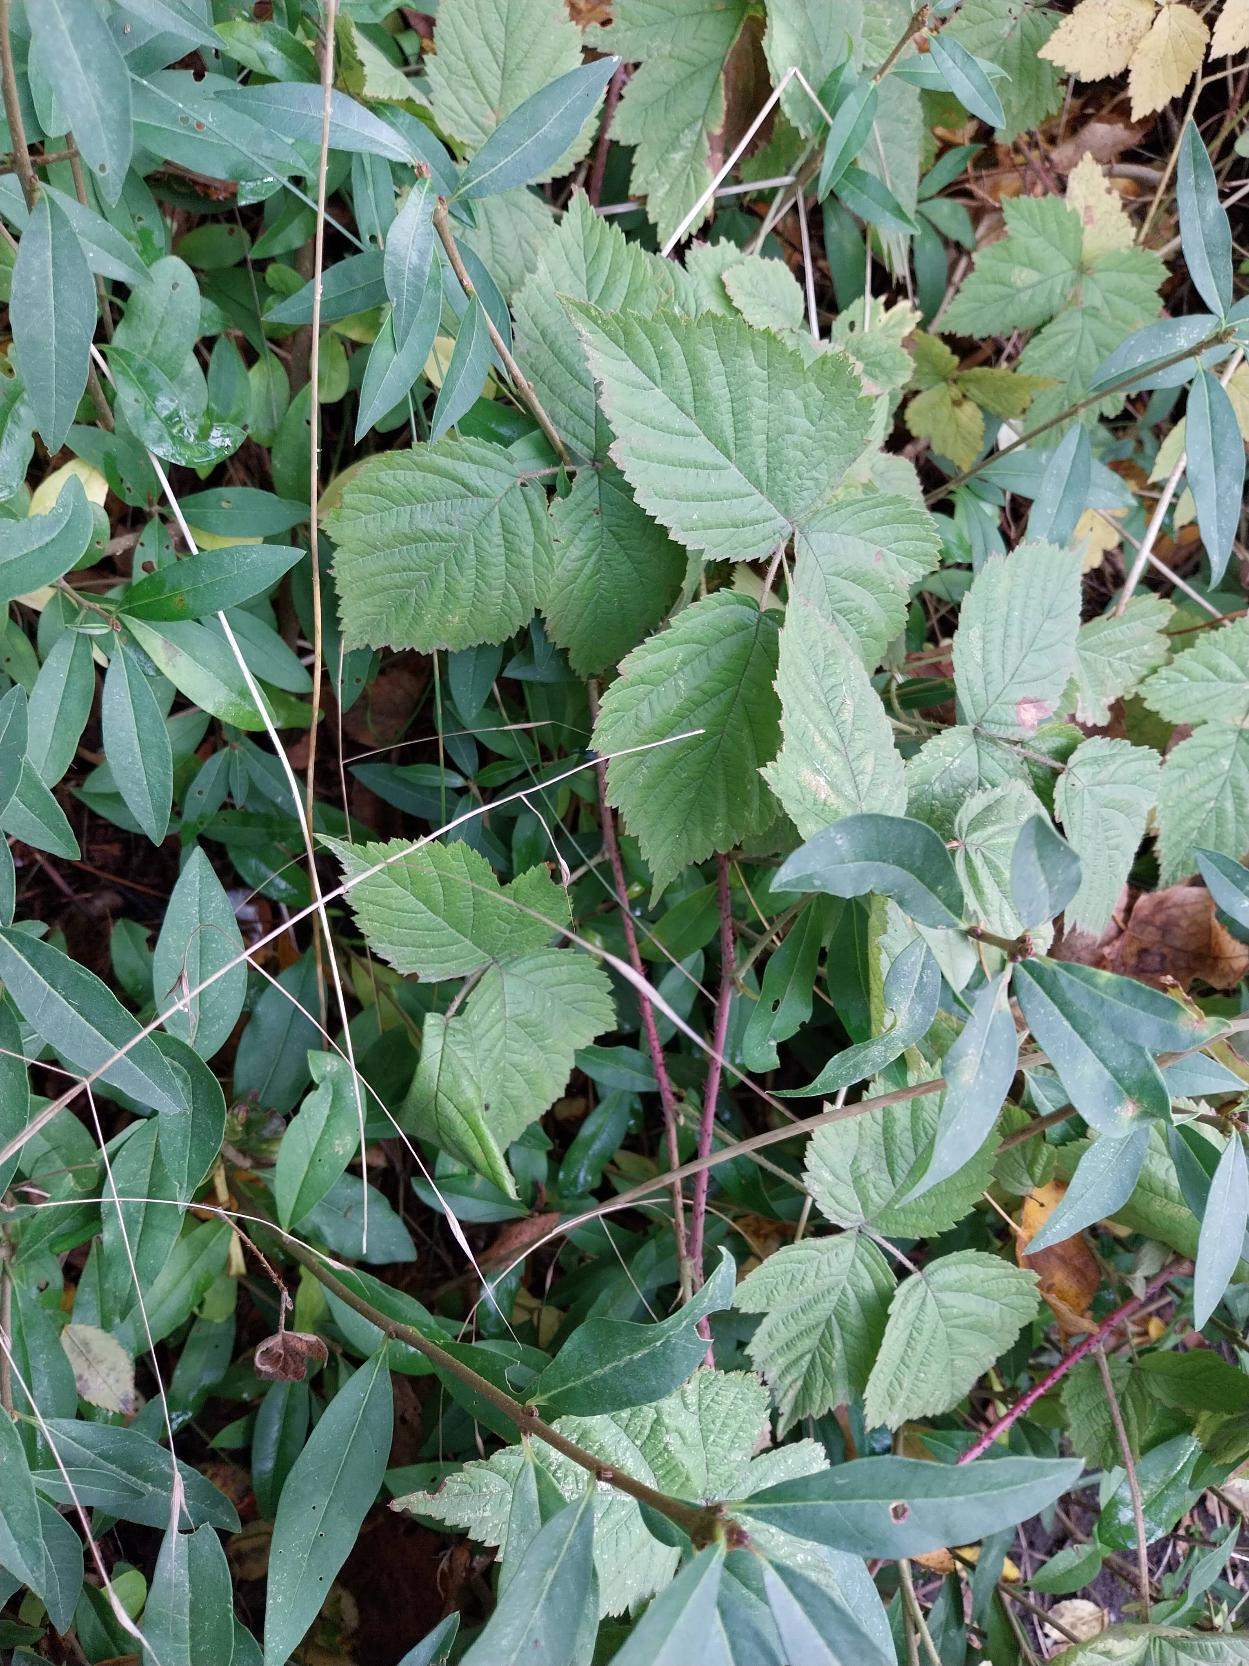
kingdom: Plantae
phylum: Tracheophyta
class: Magnoliopsida
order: Rosales
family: Rosaceae
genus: Rubus
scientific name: Rubus caesius
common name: Korbær
